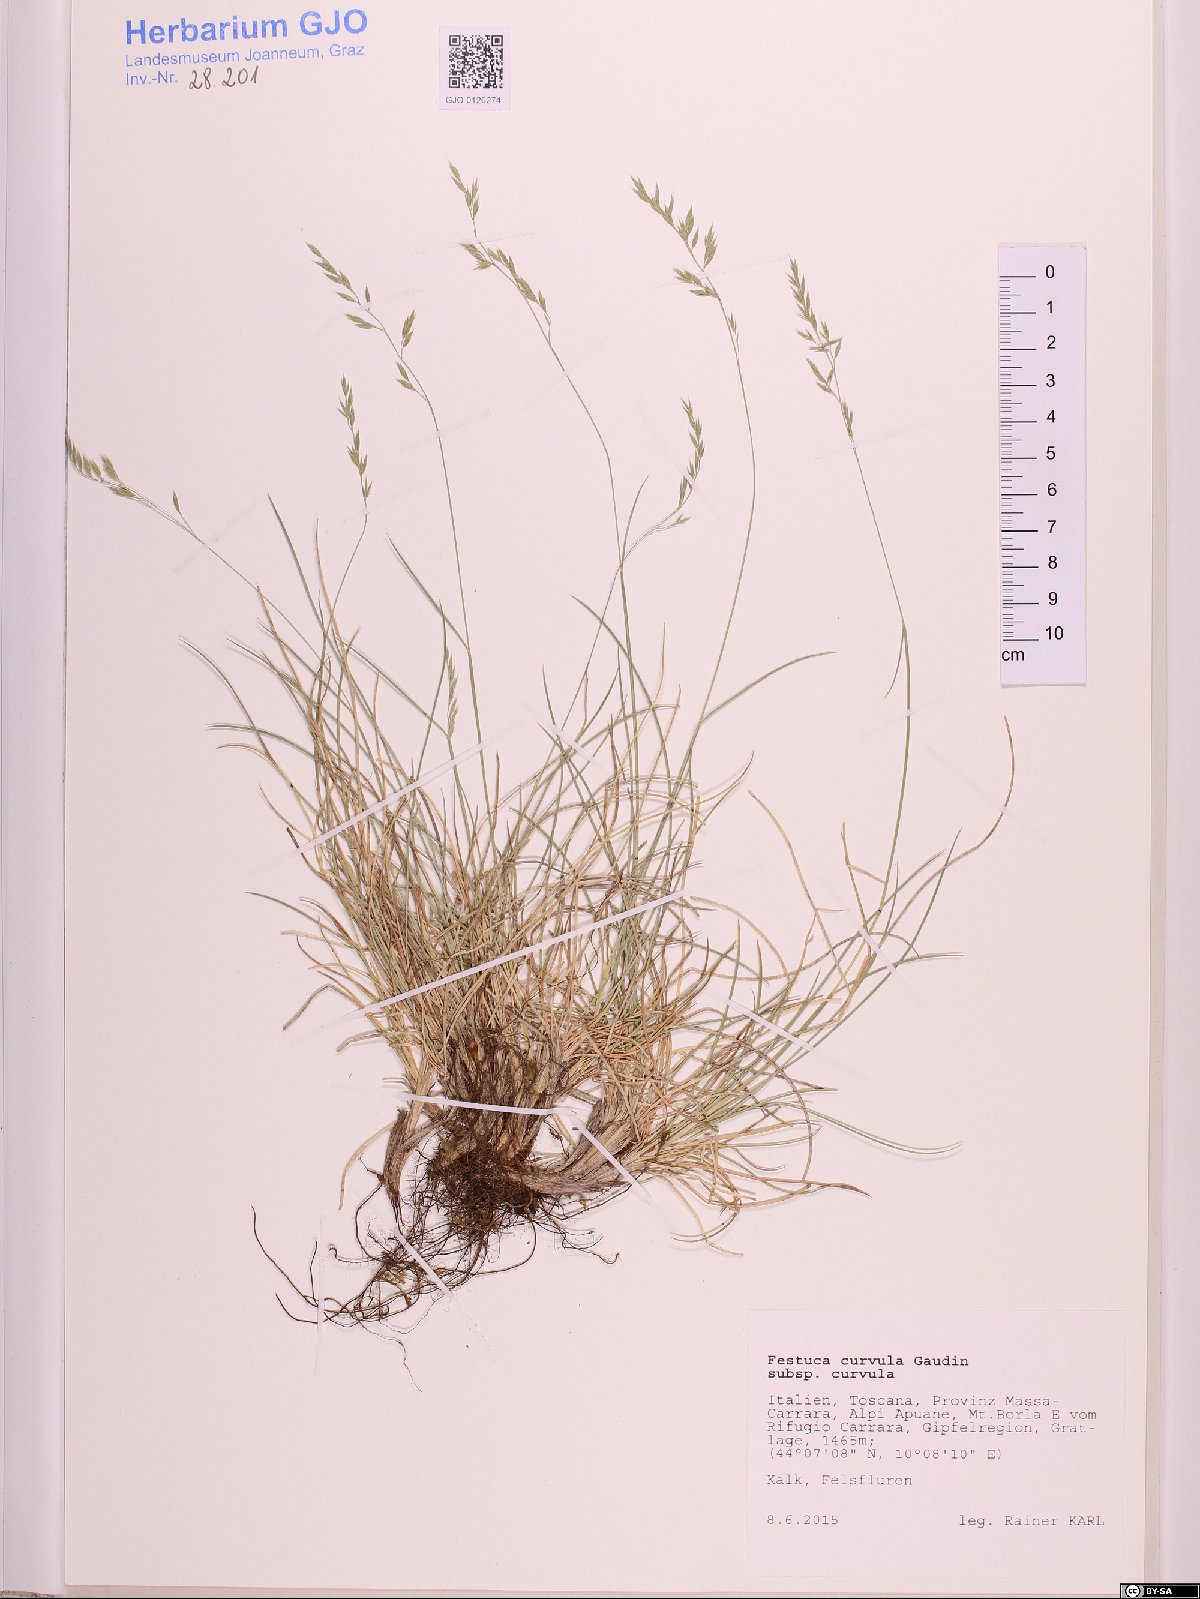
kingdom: Plantae
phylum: Tracheophyta
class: Liliopsida
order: Poales
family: Poaceae
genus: Festuca
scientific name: Festuca curvula
